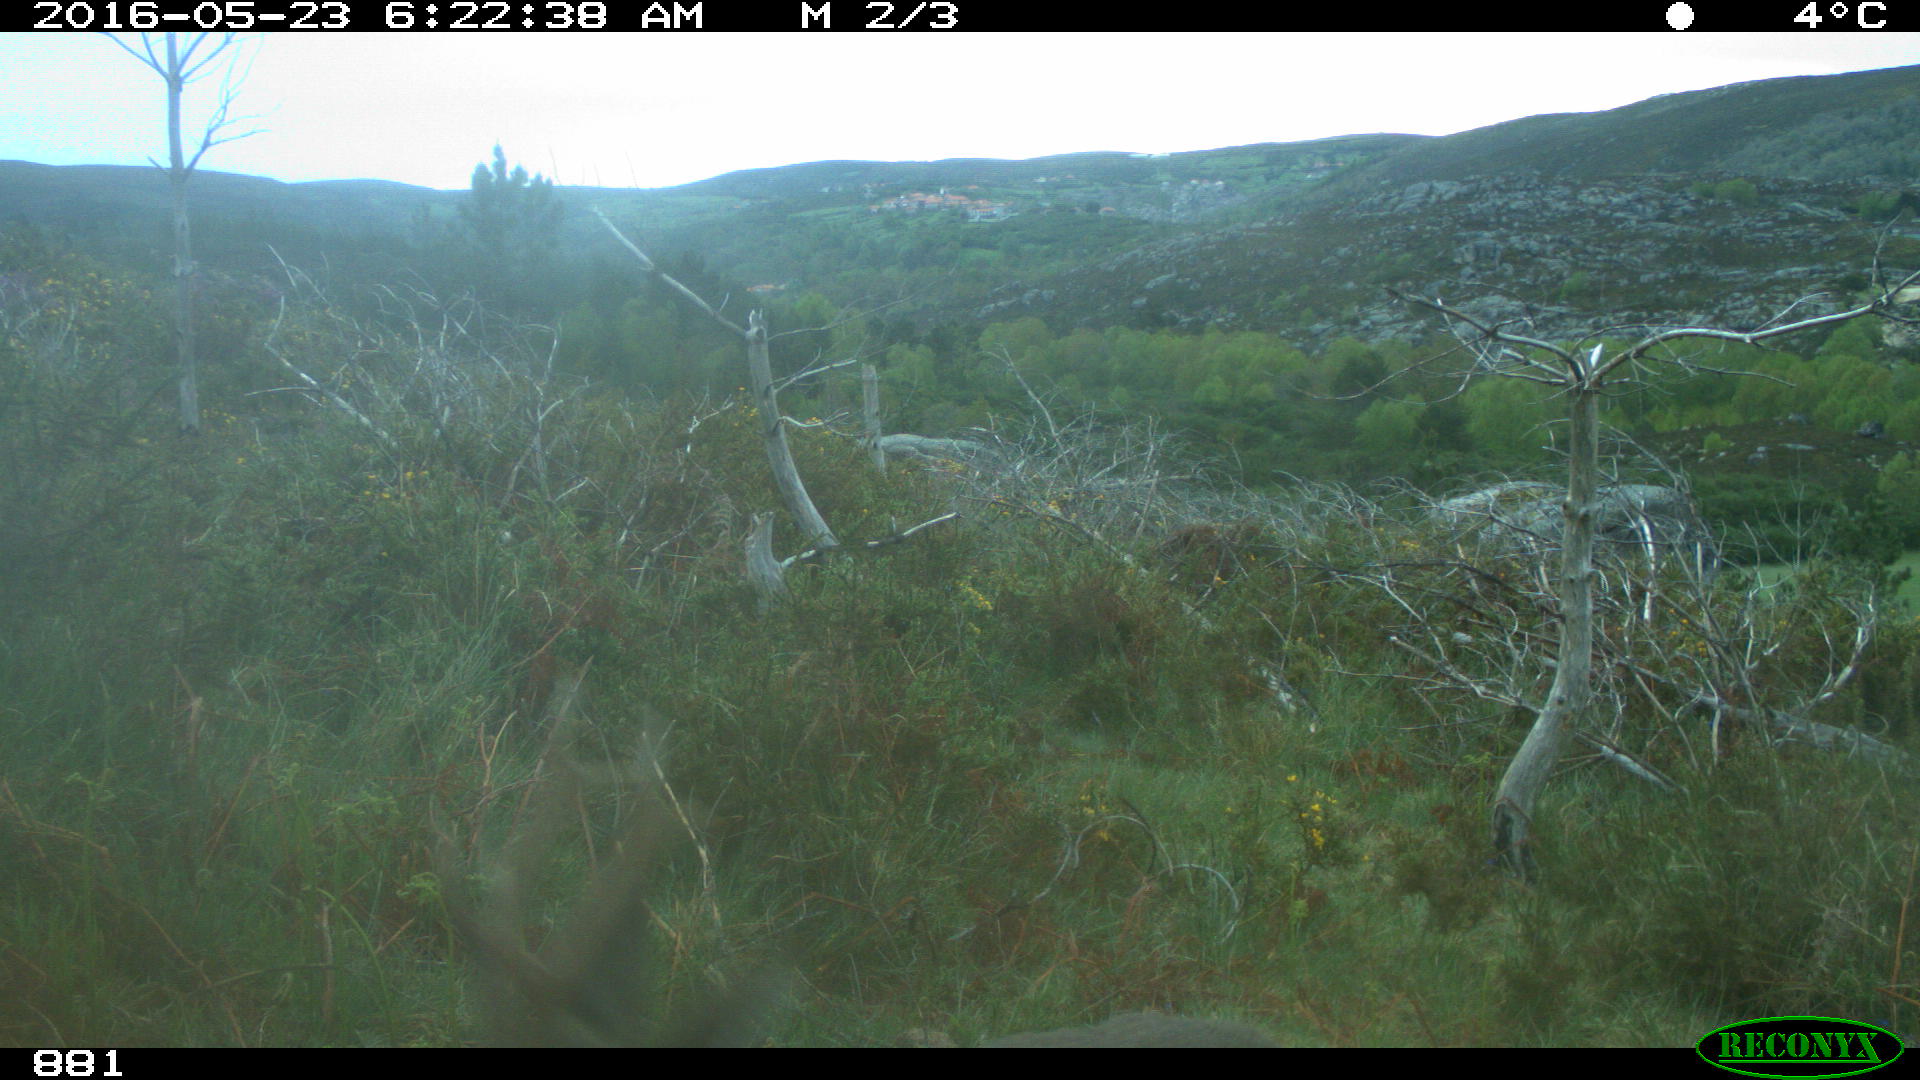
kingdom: Animalia
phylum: Chordata
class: Mammalia
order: Artiodactyla
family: Cervidae
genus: Capreolus
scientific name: Capreolus capreolus
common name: Western roe deer
